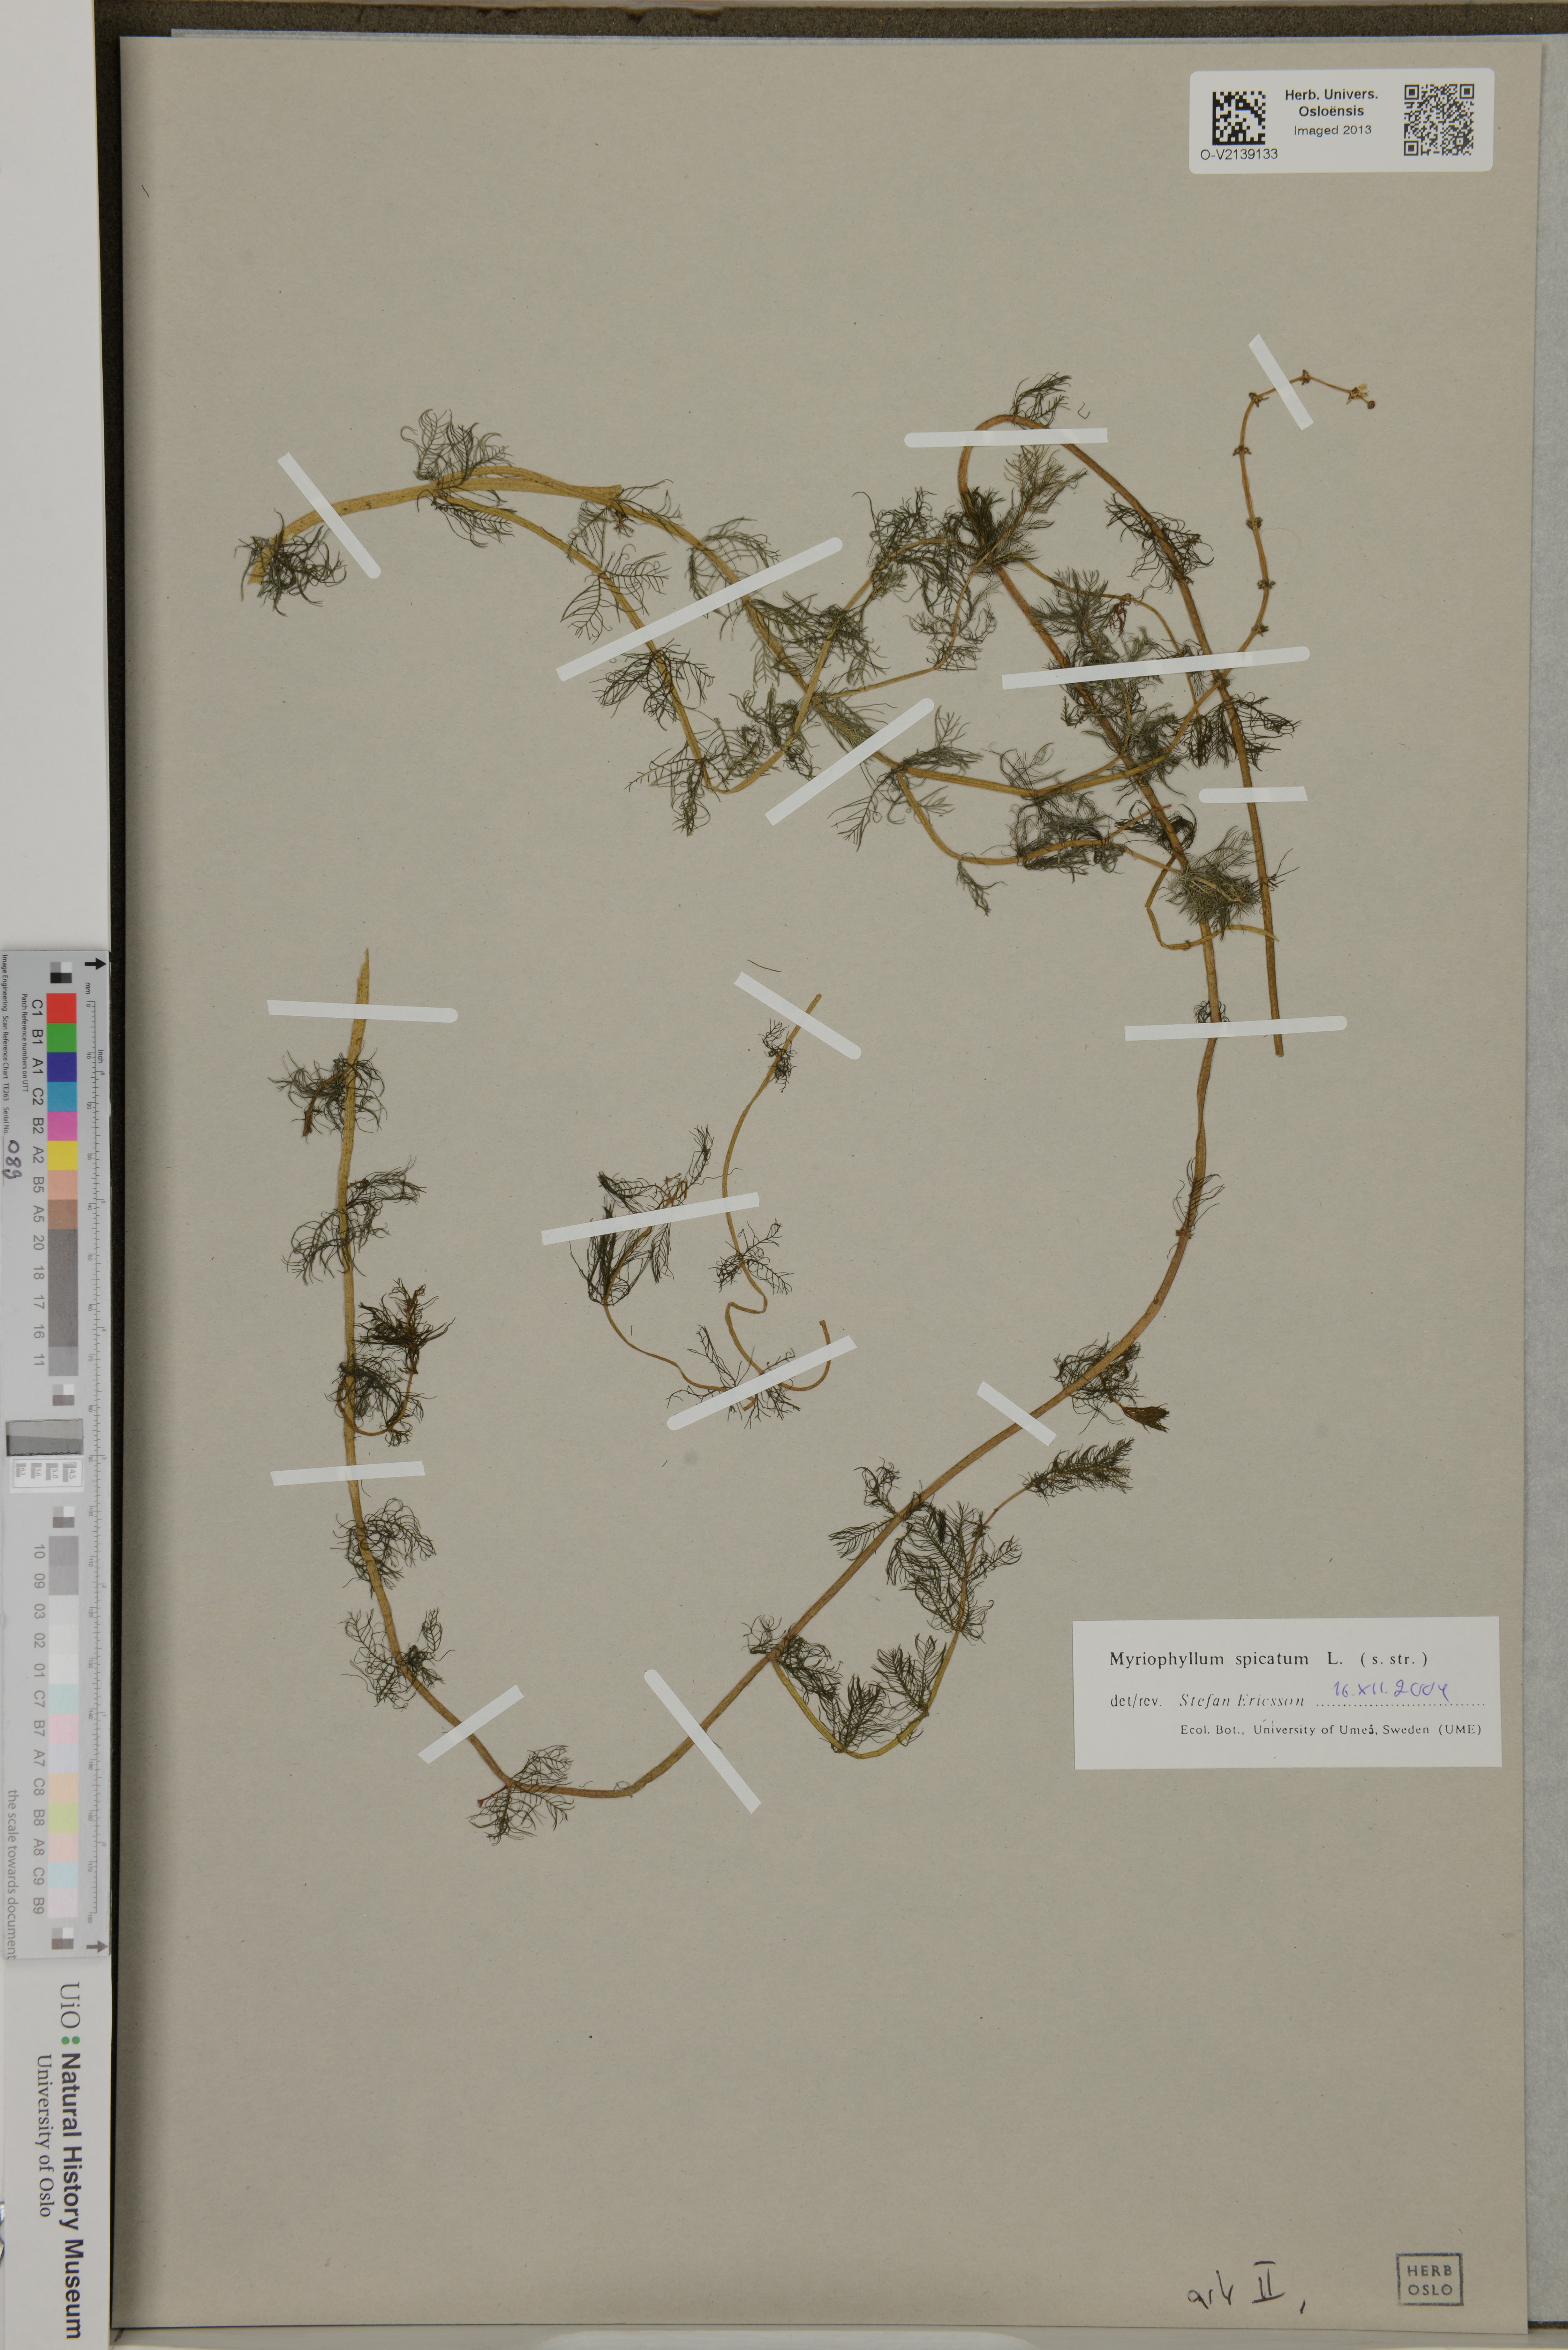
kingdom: Plantae
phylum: Tracheophyta
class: Magnoliopsida
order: Saxifragales
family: Haloragaceae
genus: Myriophyllum
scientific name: Myriophyllum spicatum
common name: Spiked water-milfoil
